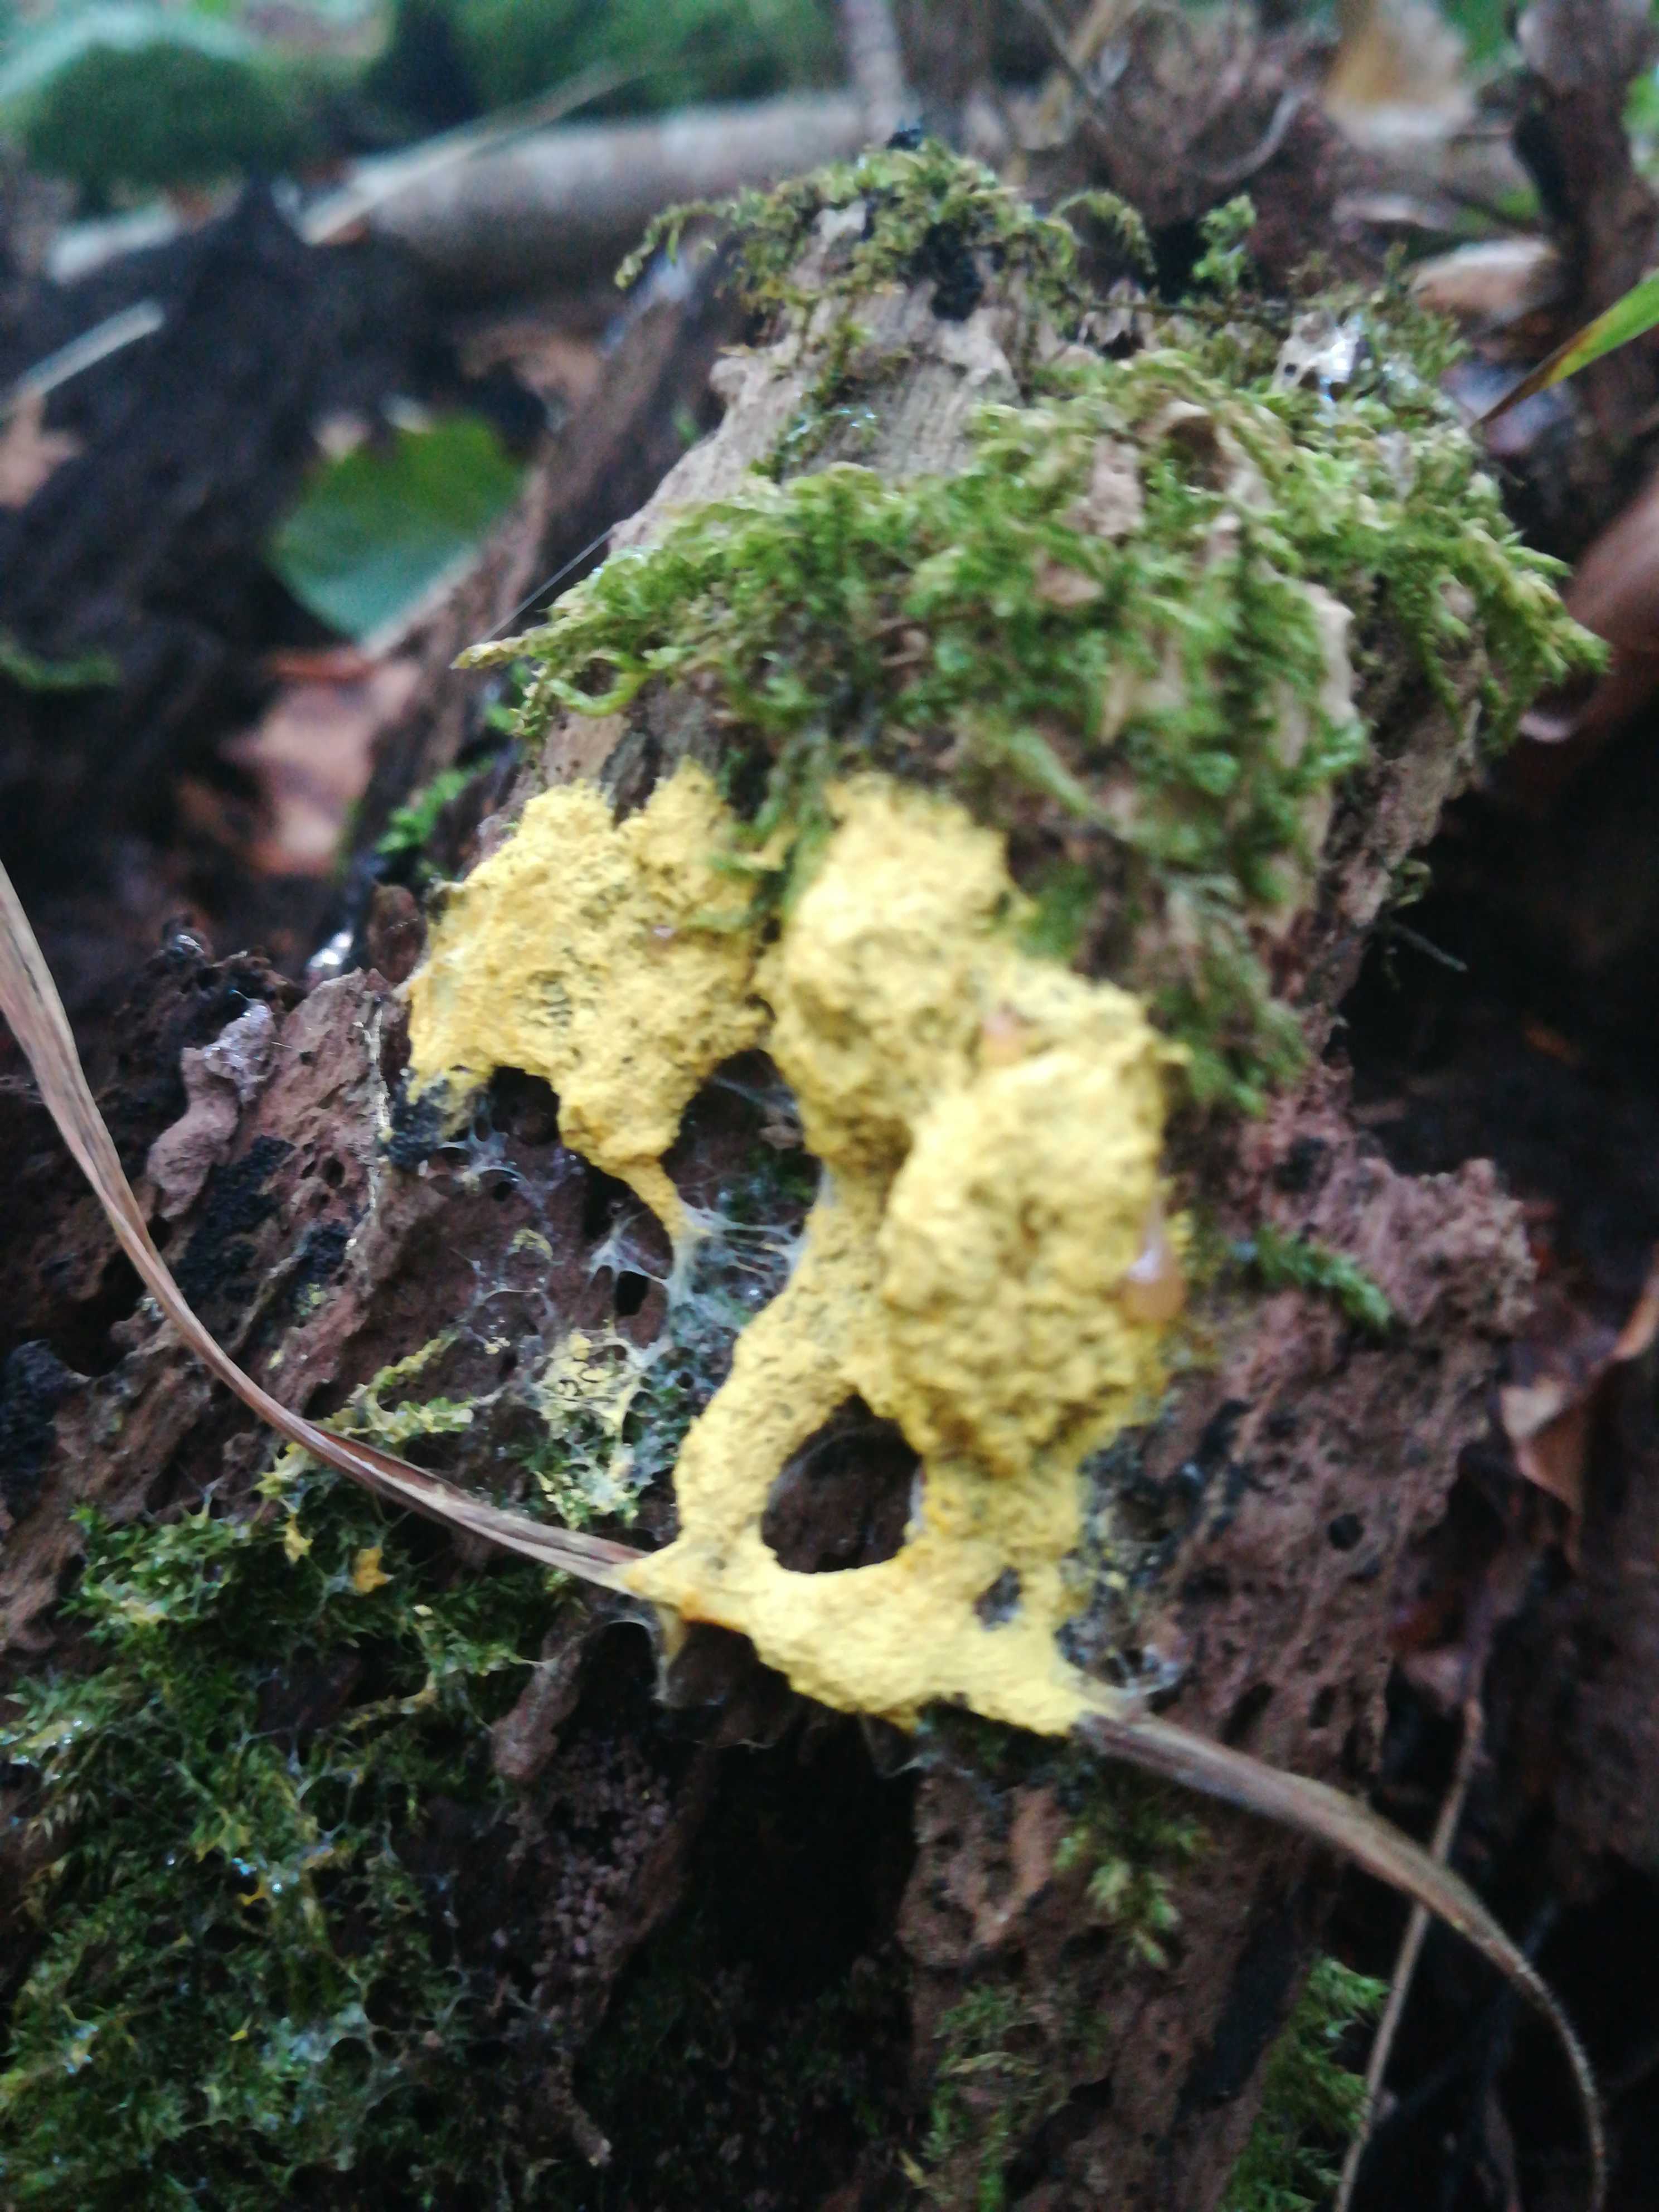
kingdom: Protozoa
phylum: Mycetozoa
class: Myxomycetes
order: Physarales
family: Physaraceae
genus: Fuligo
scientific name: Fuligo septica
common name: gul troldsmør
